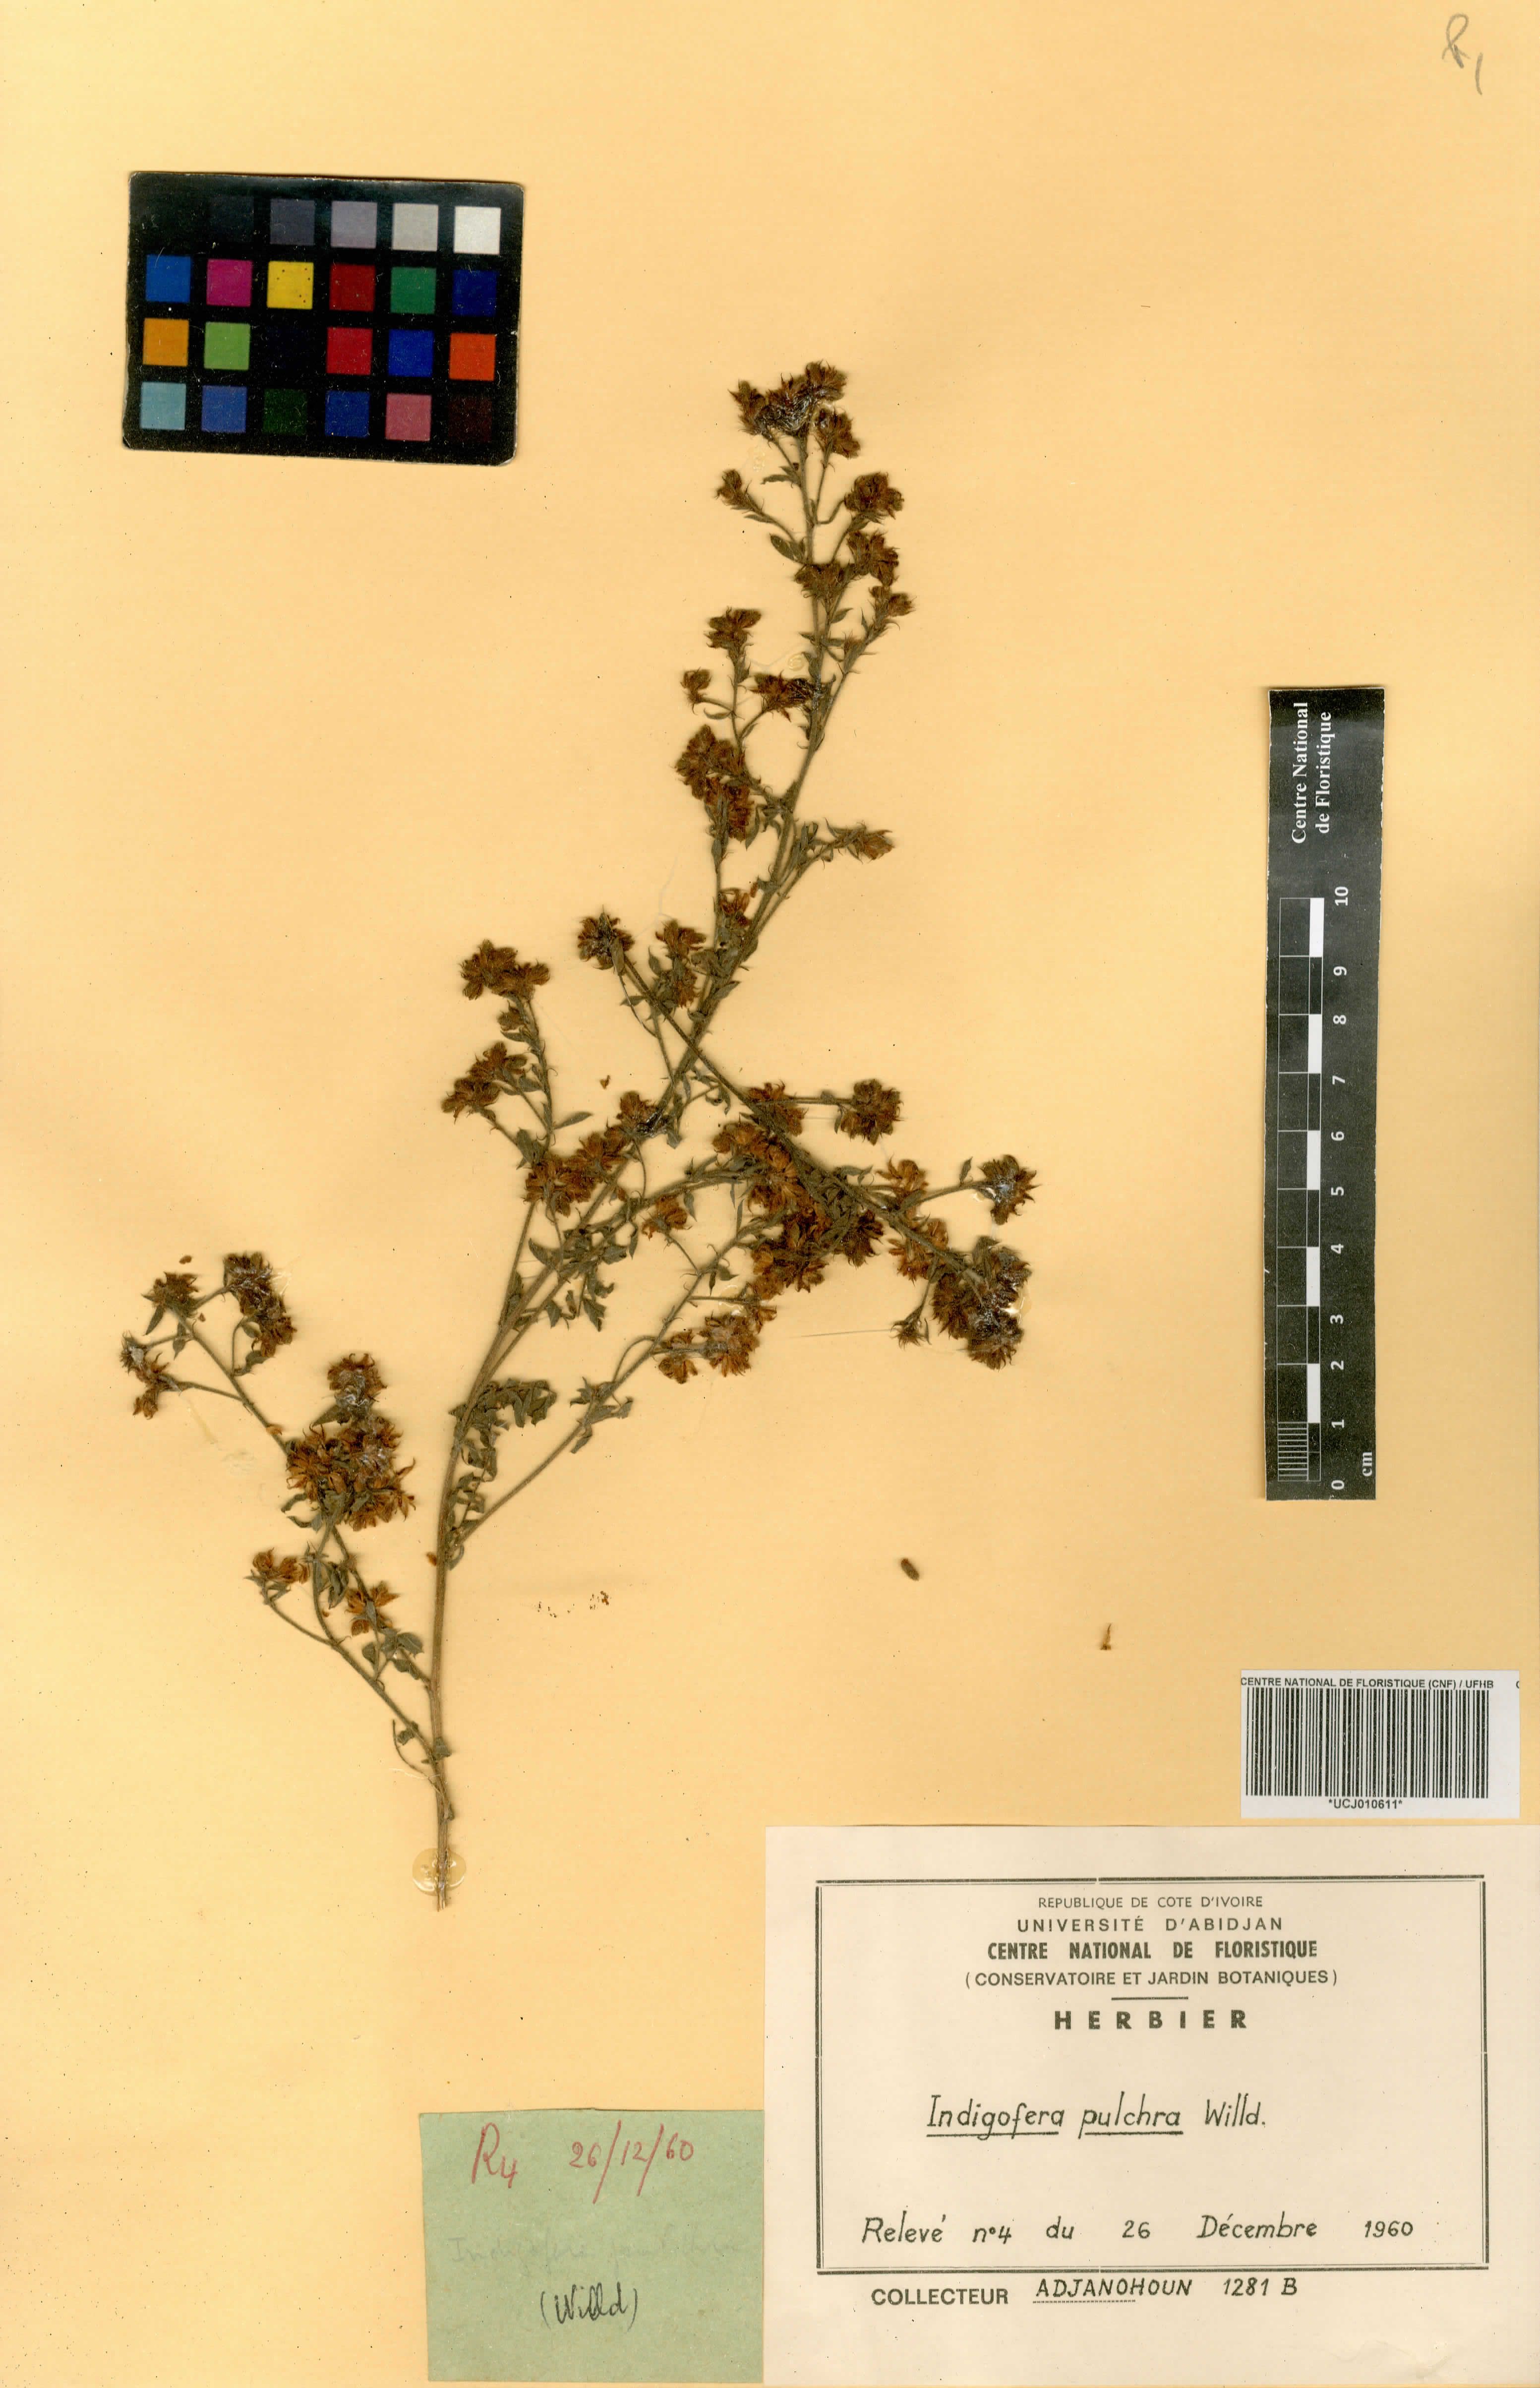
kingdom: Plantae
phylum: Tracheophyta
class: Magnoliopsida
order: Fabales
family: Fabaceae
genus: Indigofera
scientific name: Indigofera pulchra
